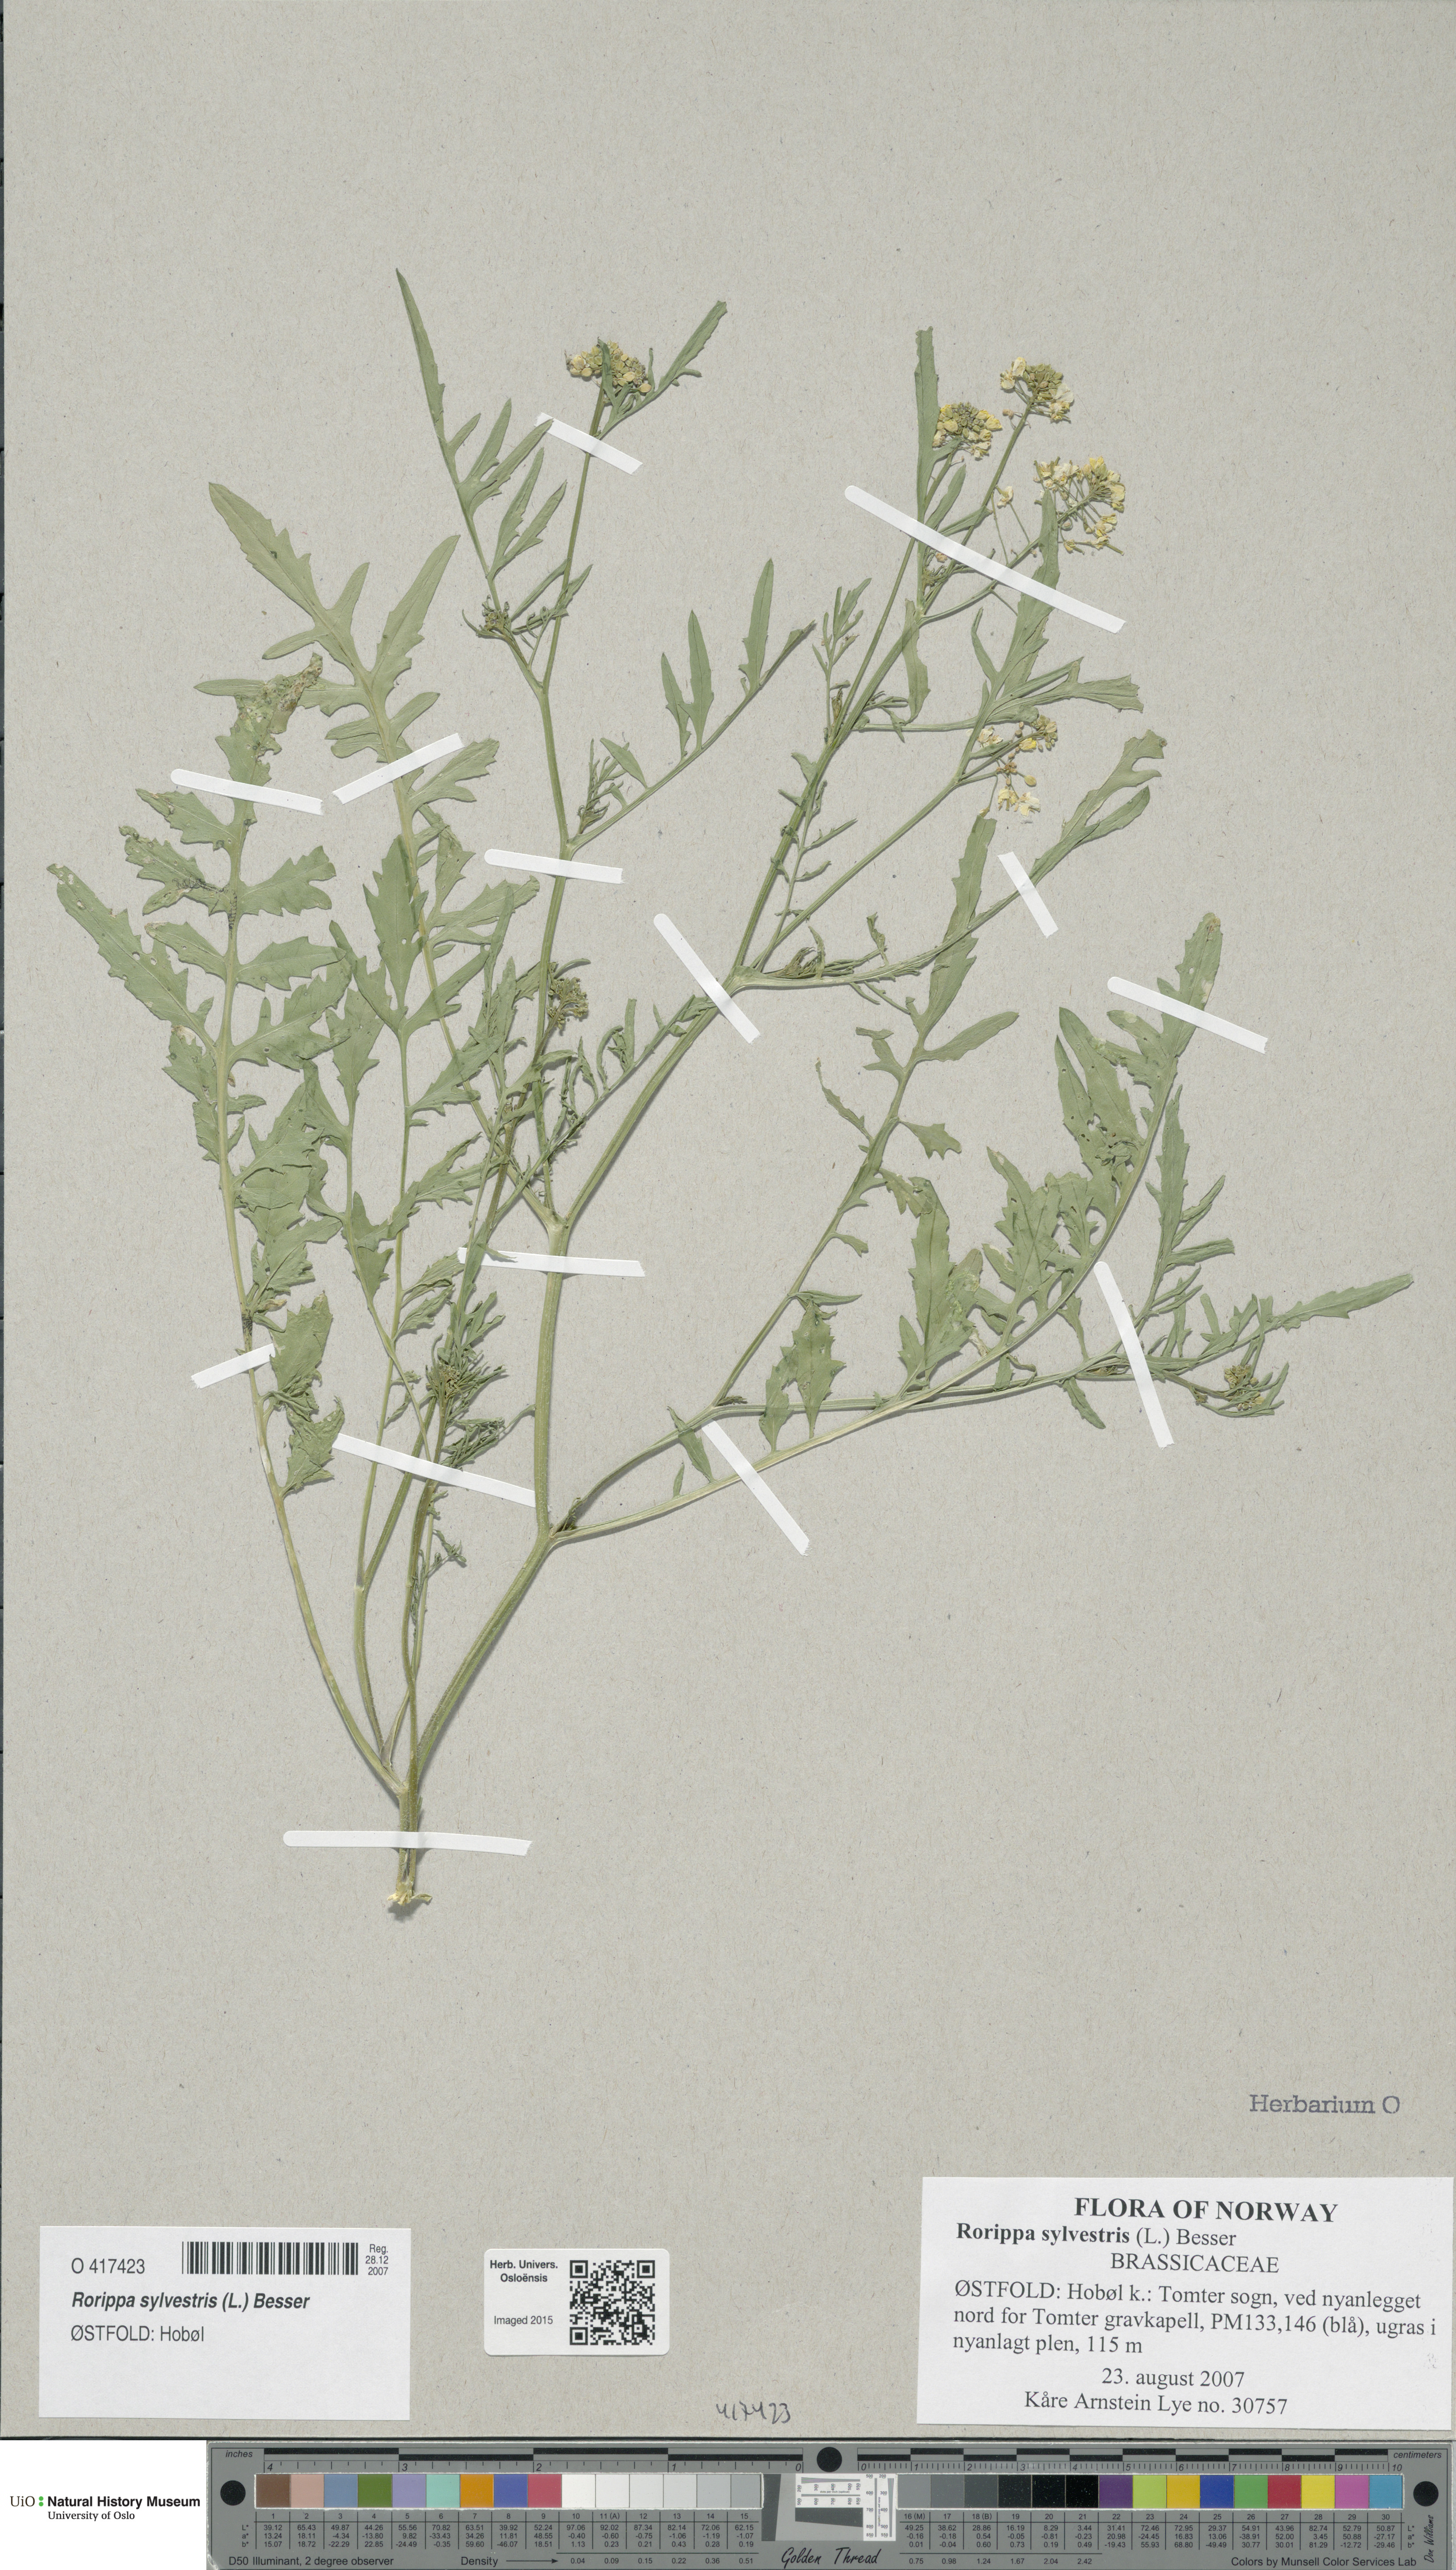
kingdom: Plantae
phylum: Tracheophyta
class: Magnoliopsida
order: Brassicales
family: Brassicaceae
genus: Rorippa
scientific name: Rorippa sylvestris
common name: Creeping yellowcress
